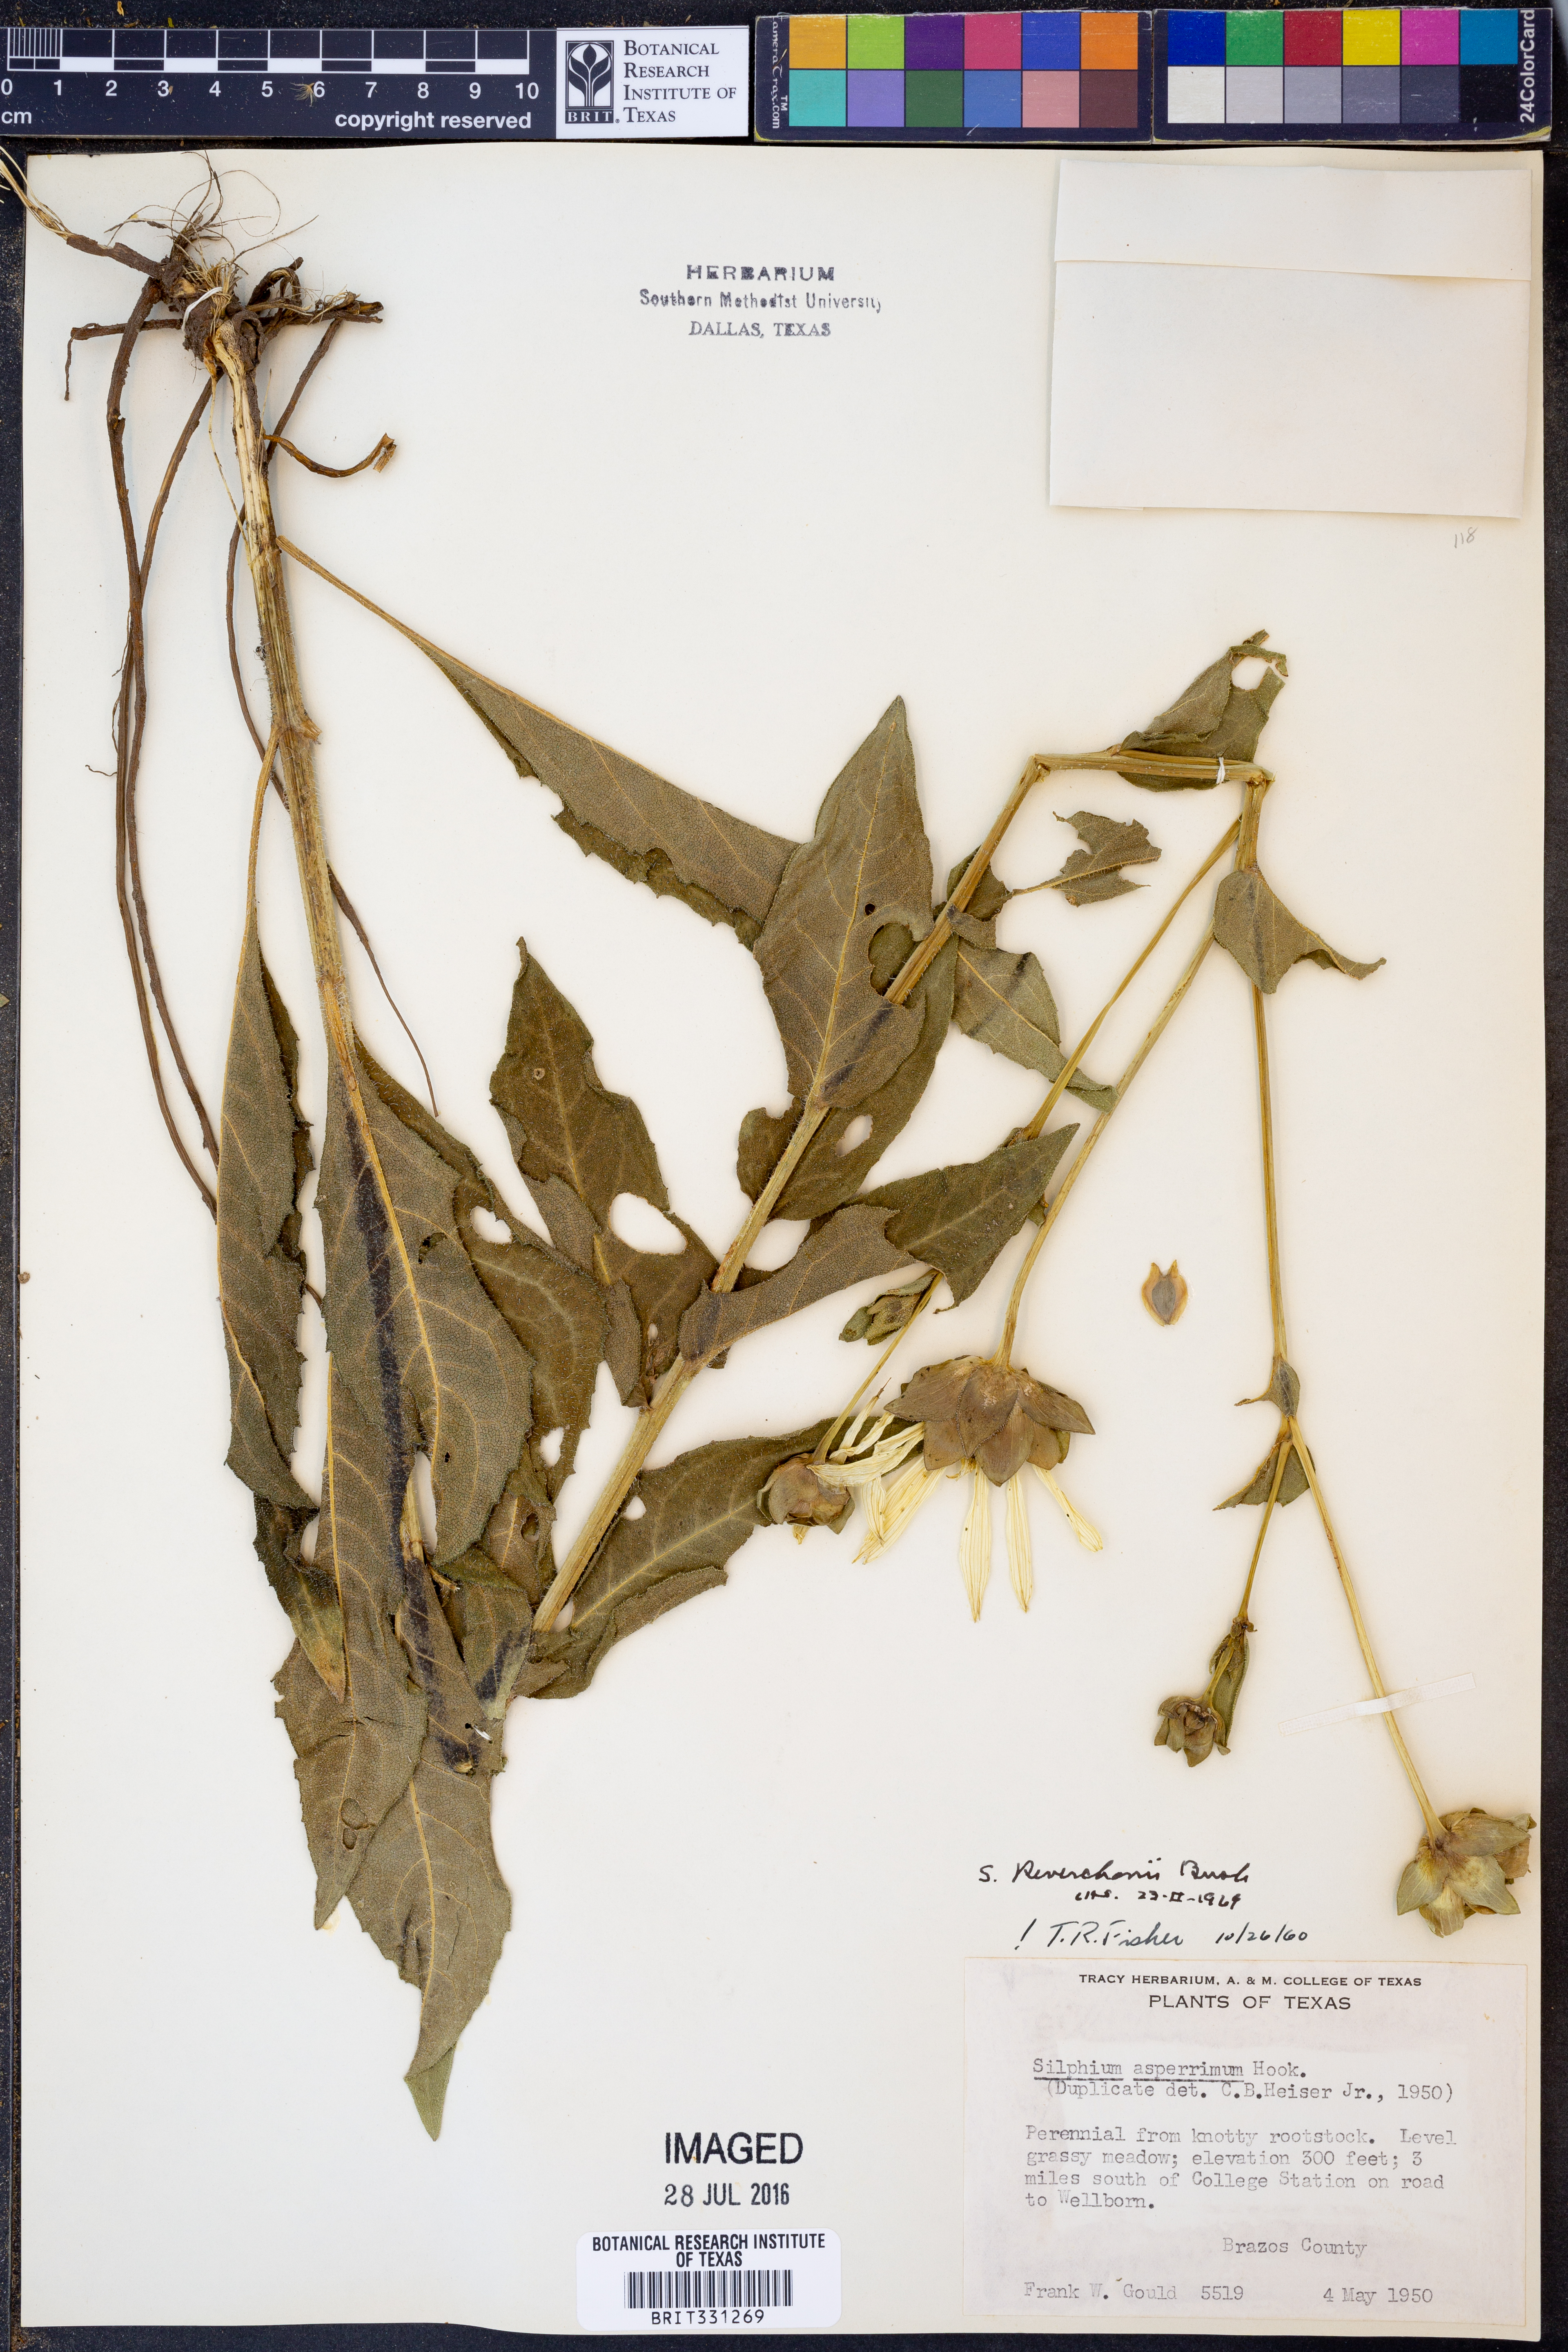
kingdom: Plantae
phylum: Tracheophyta
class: Magnoliopsida
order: Asterales
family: Asteraceae
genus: Silphium
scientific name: Silphium radula
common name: Roughleaf rosinweed
